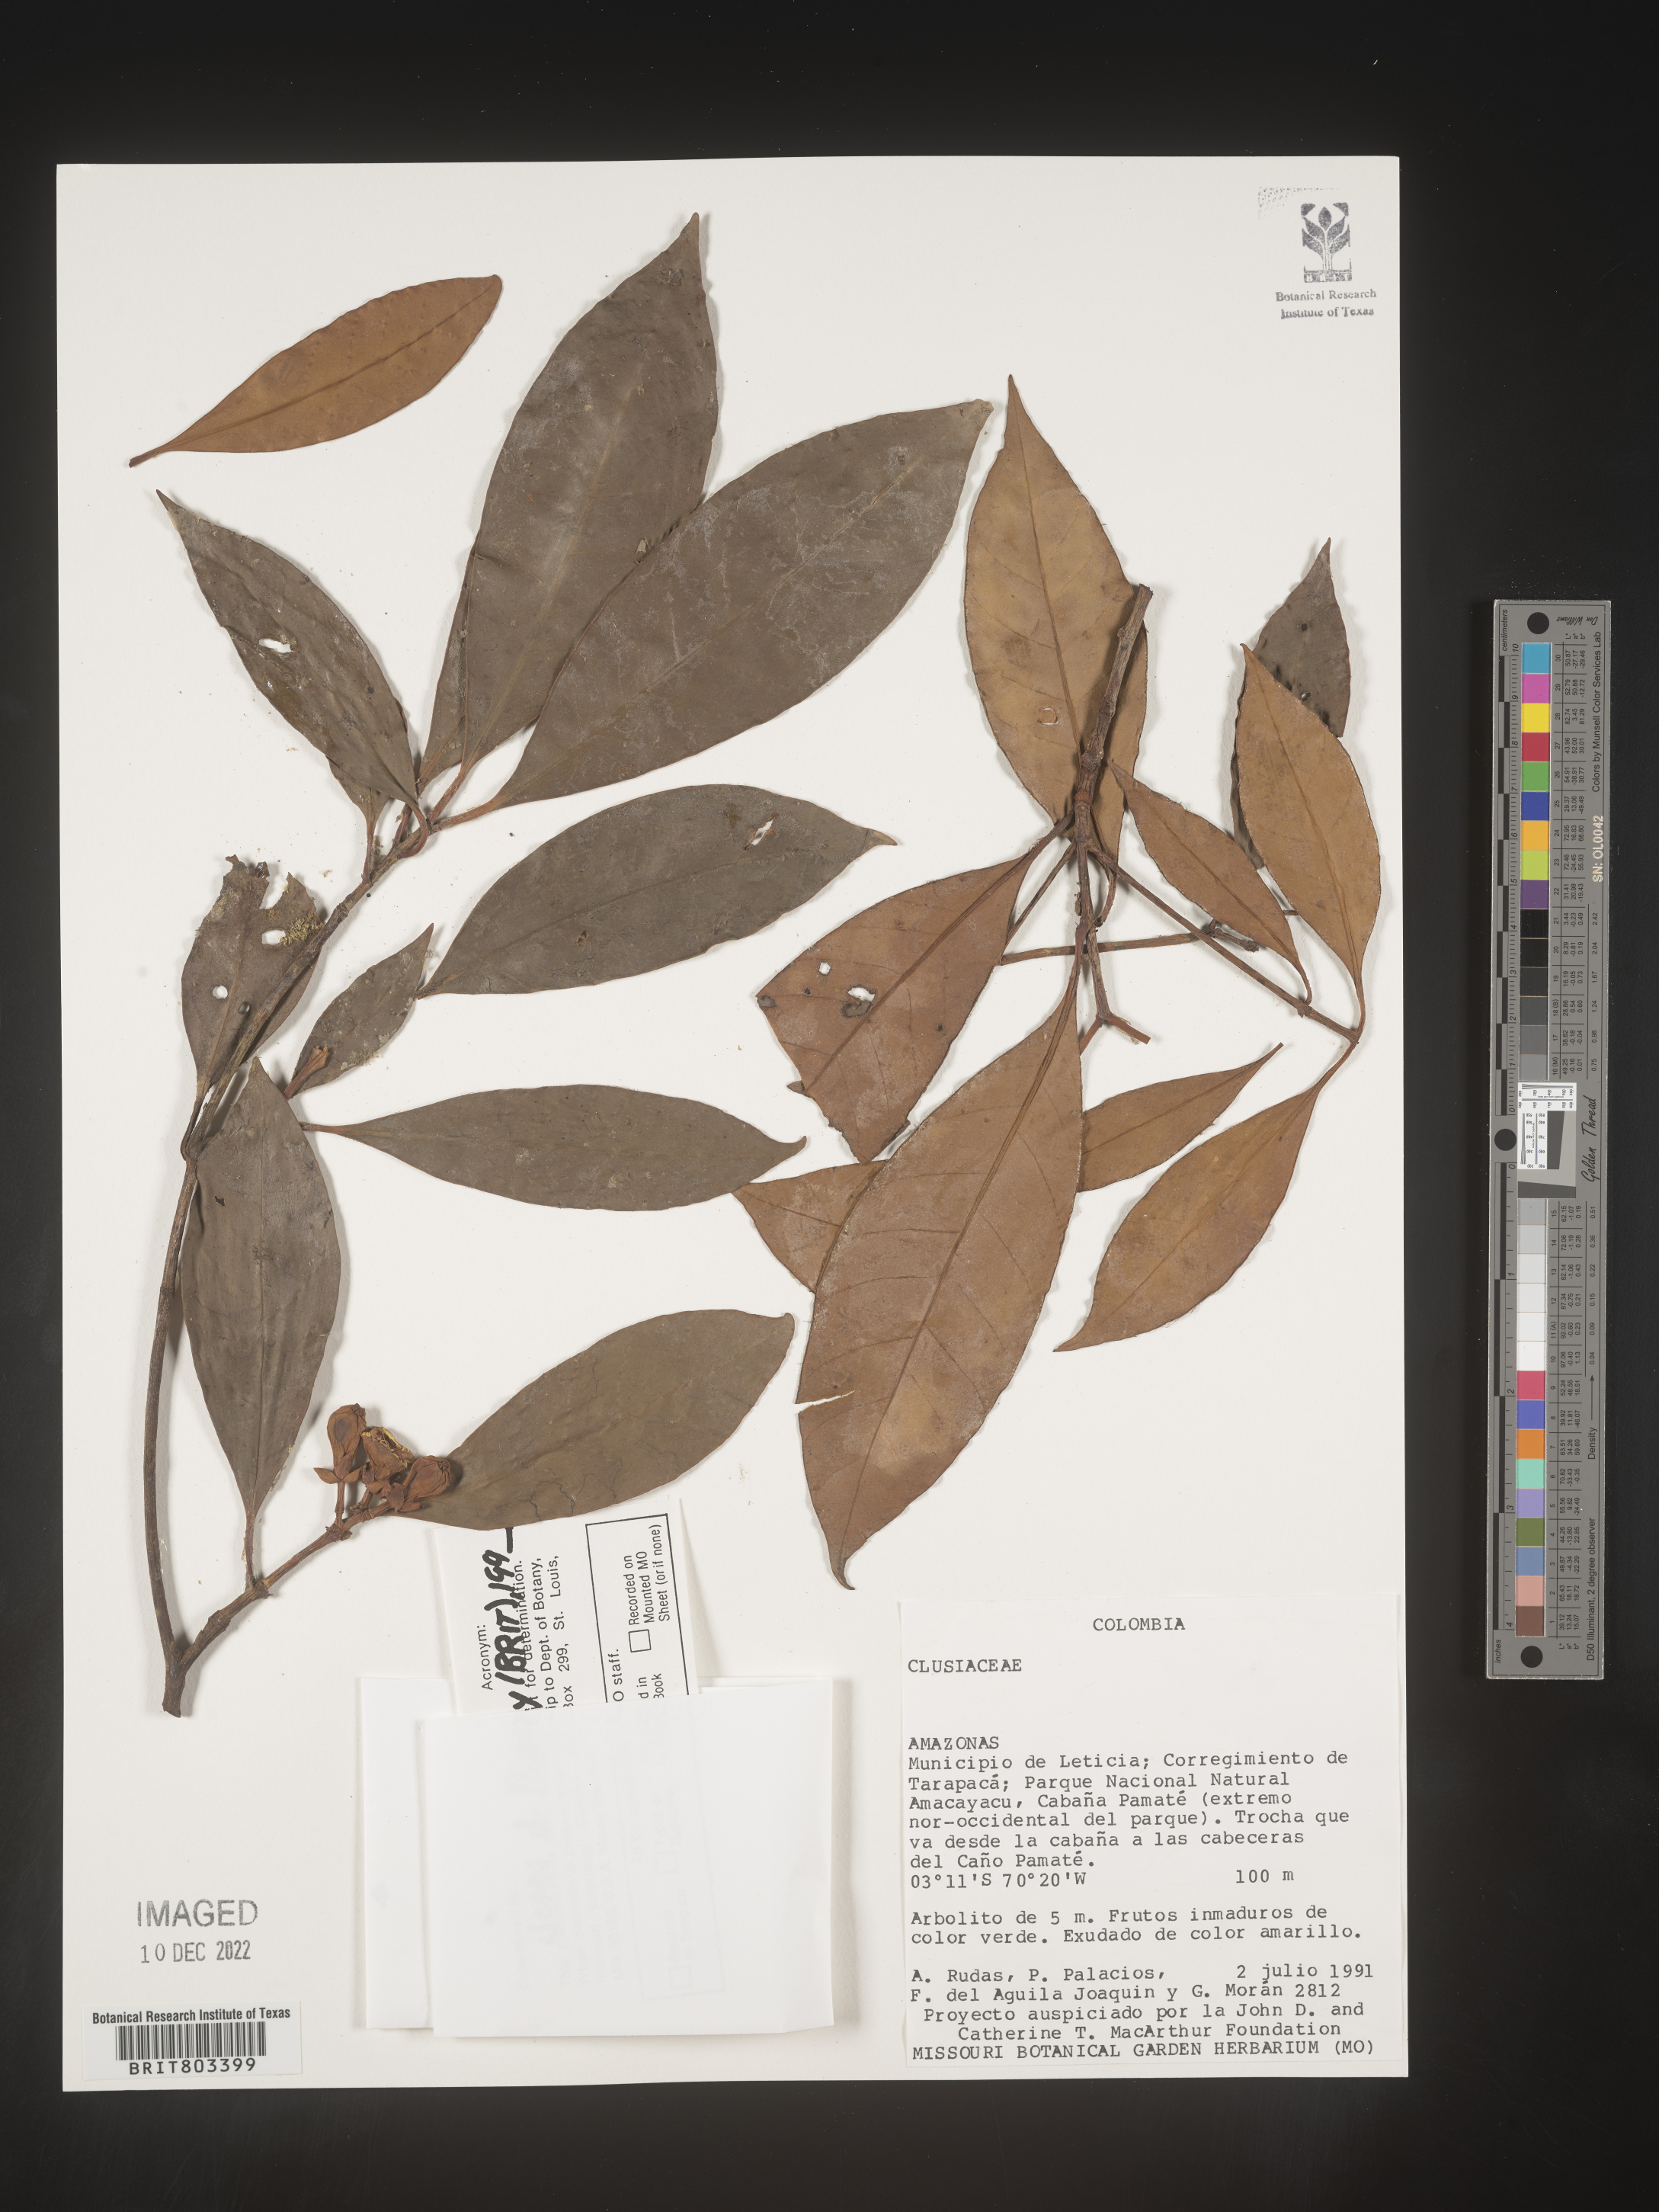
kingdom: Plantae
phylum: Tracheophyta
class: Magnoliopsida
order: Malpighiales
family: Clusiaceae
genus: Tovomita
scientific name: Tovomita
